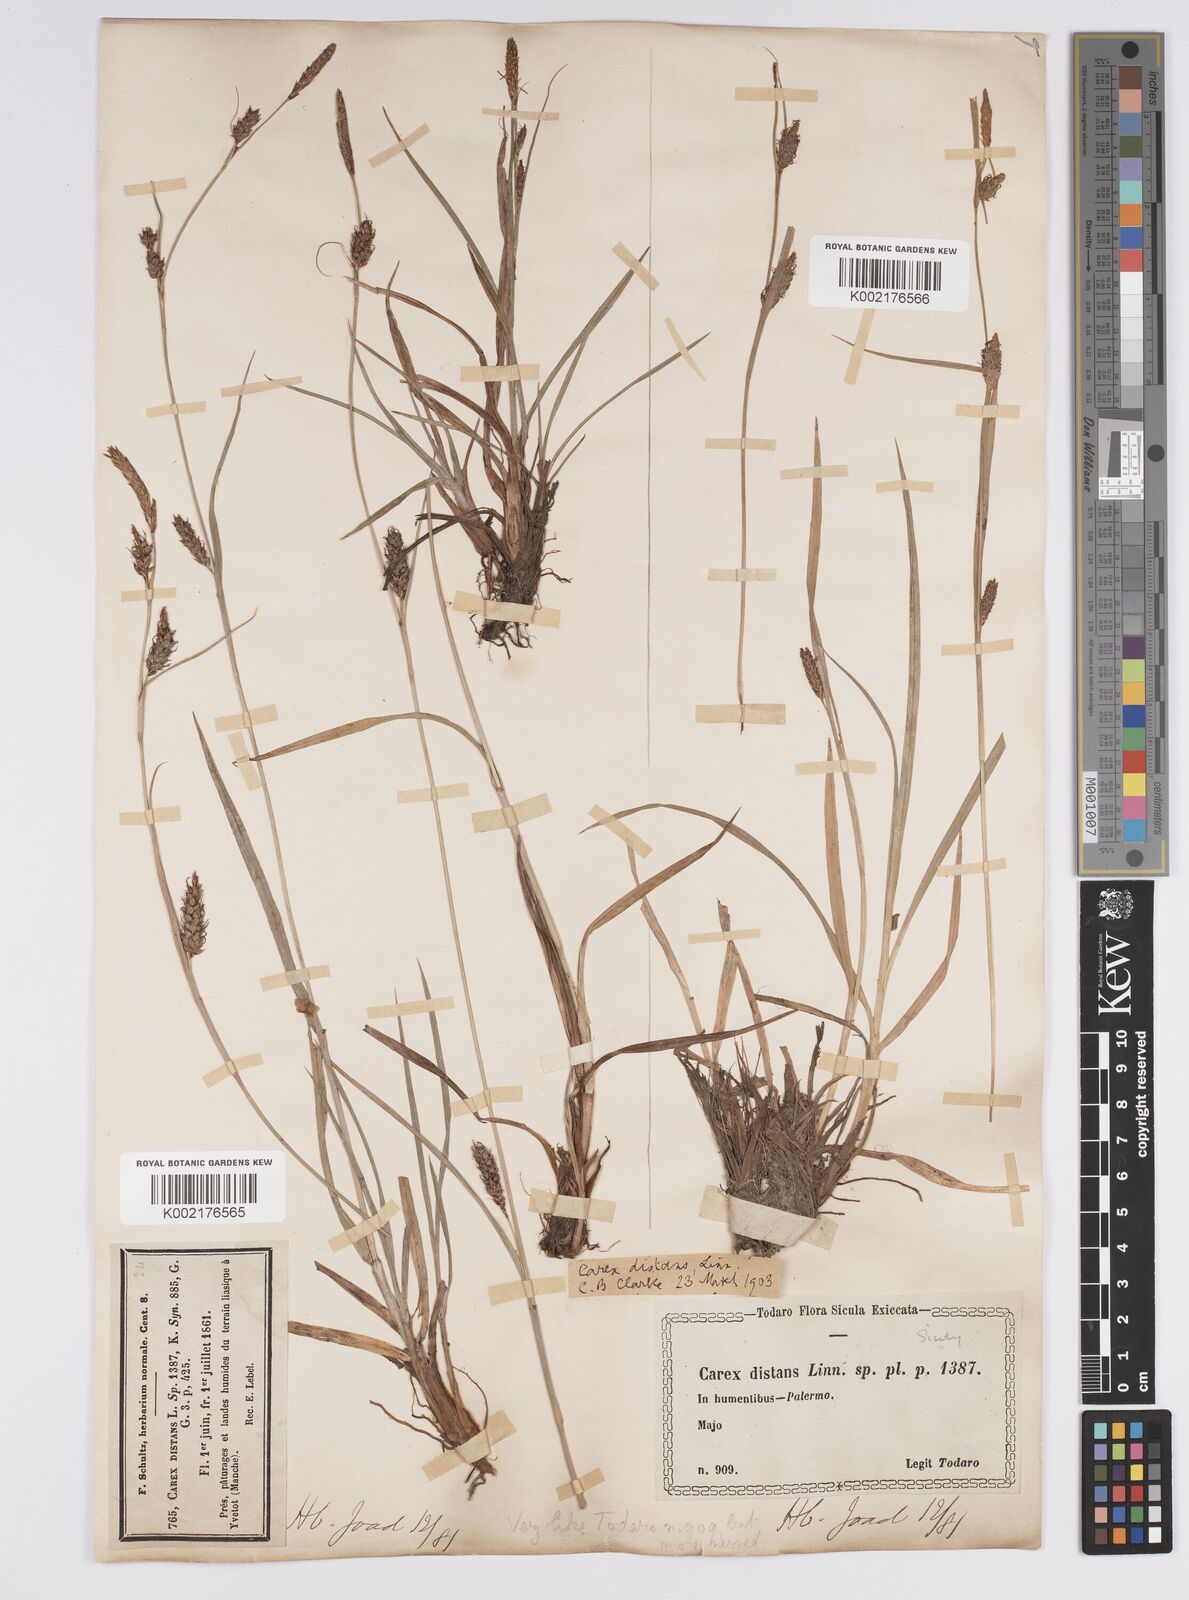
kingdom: Plantae
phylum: Tracheophyta
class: Liliopsida
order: Poales
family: Cyperaceae
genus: Carex
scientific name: Carex distans
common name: Distant sedge
